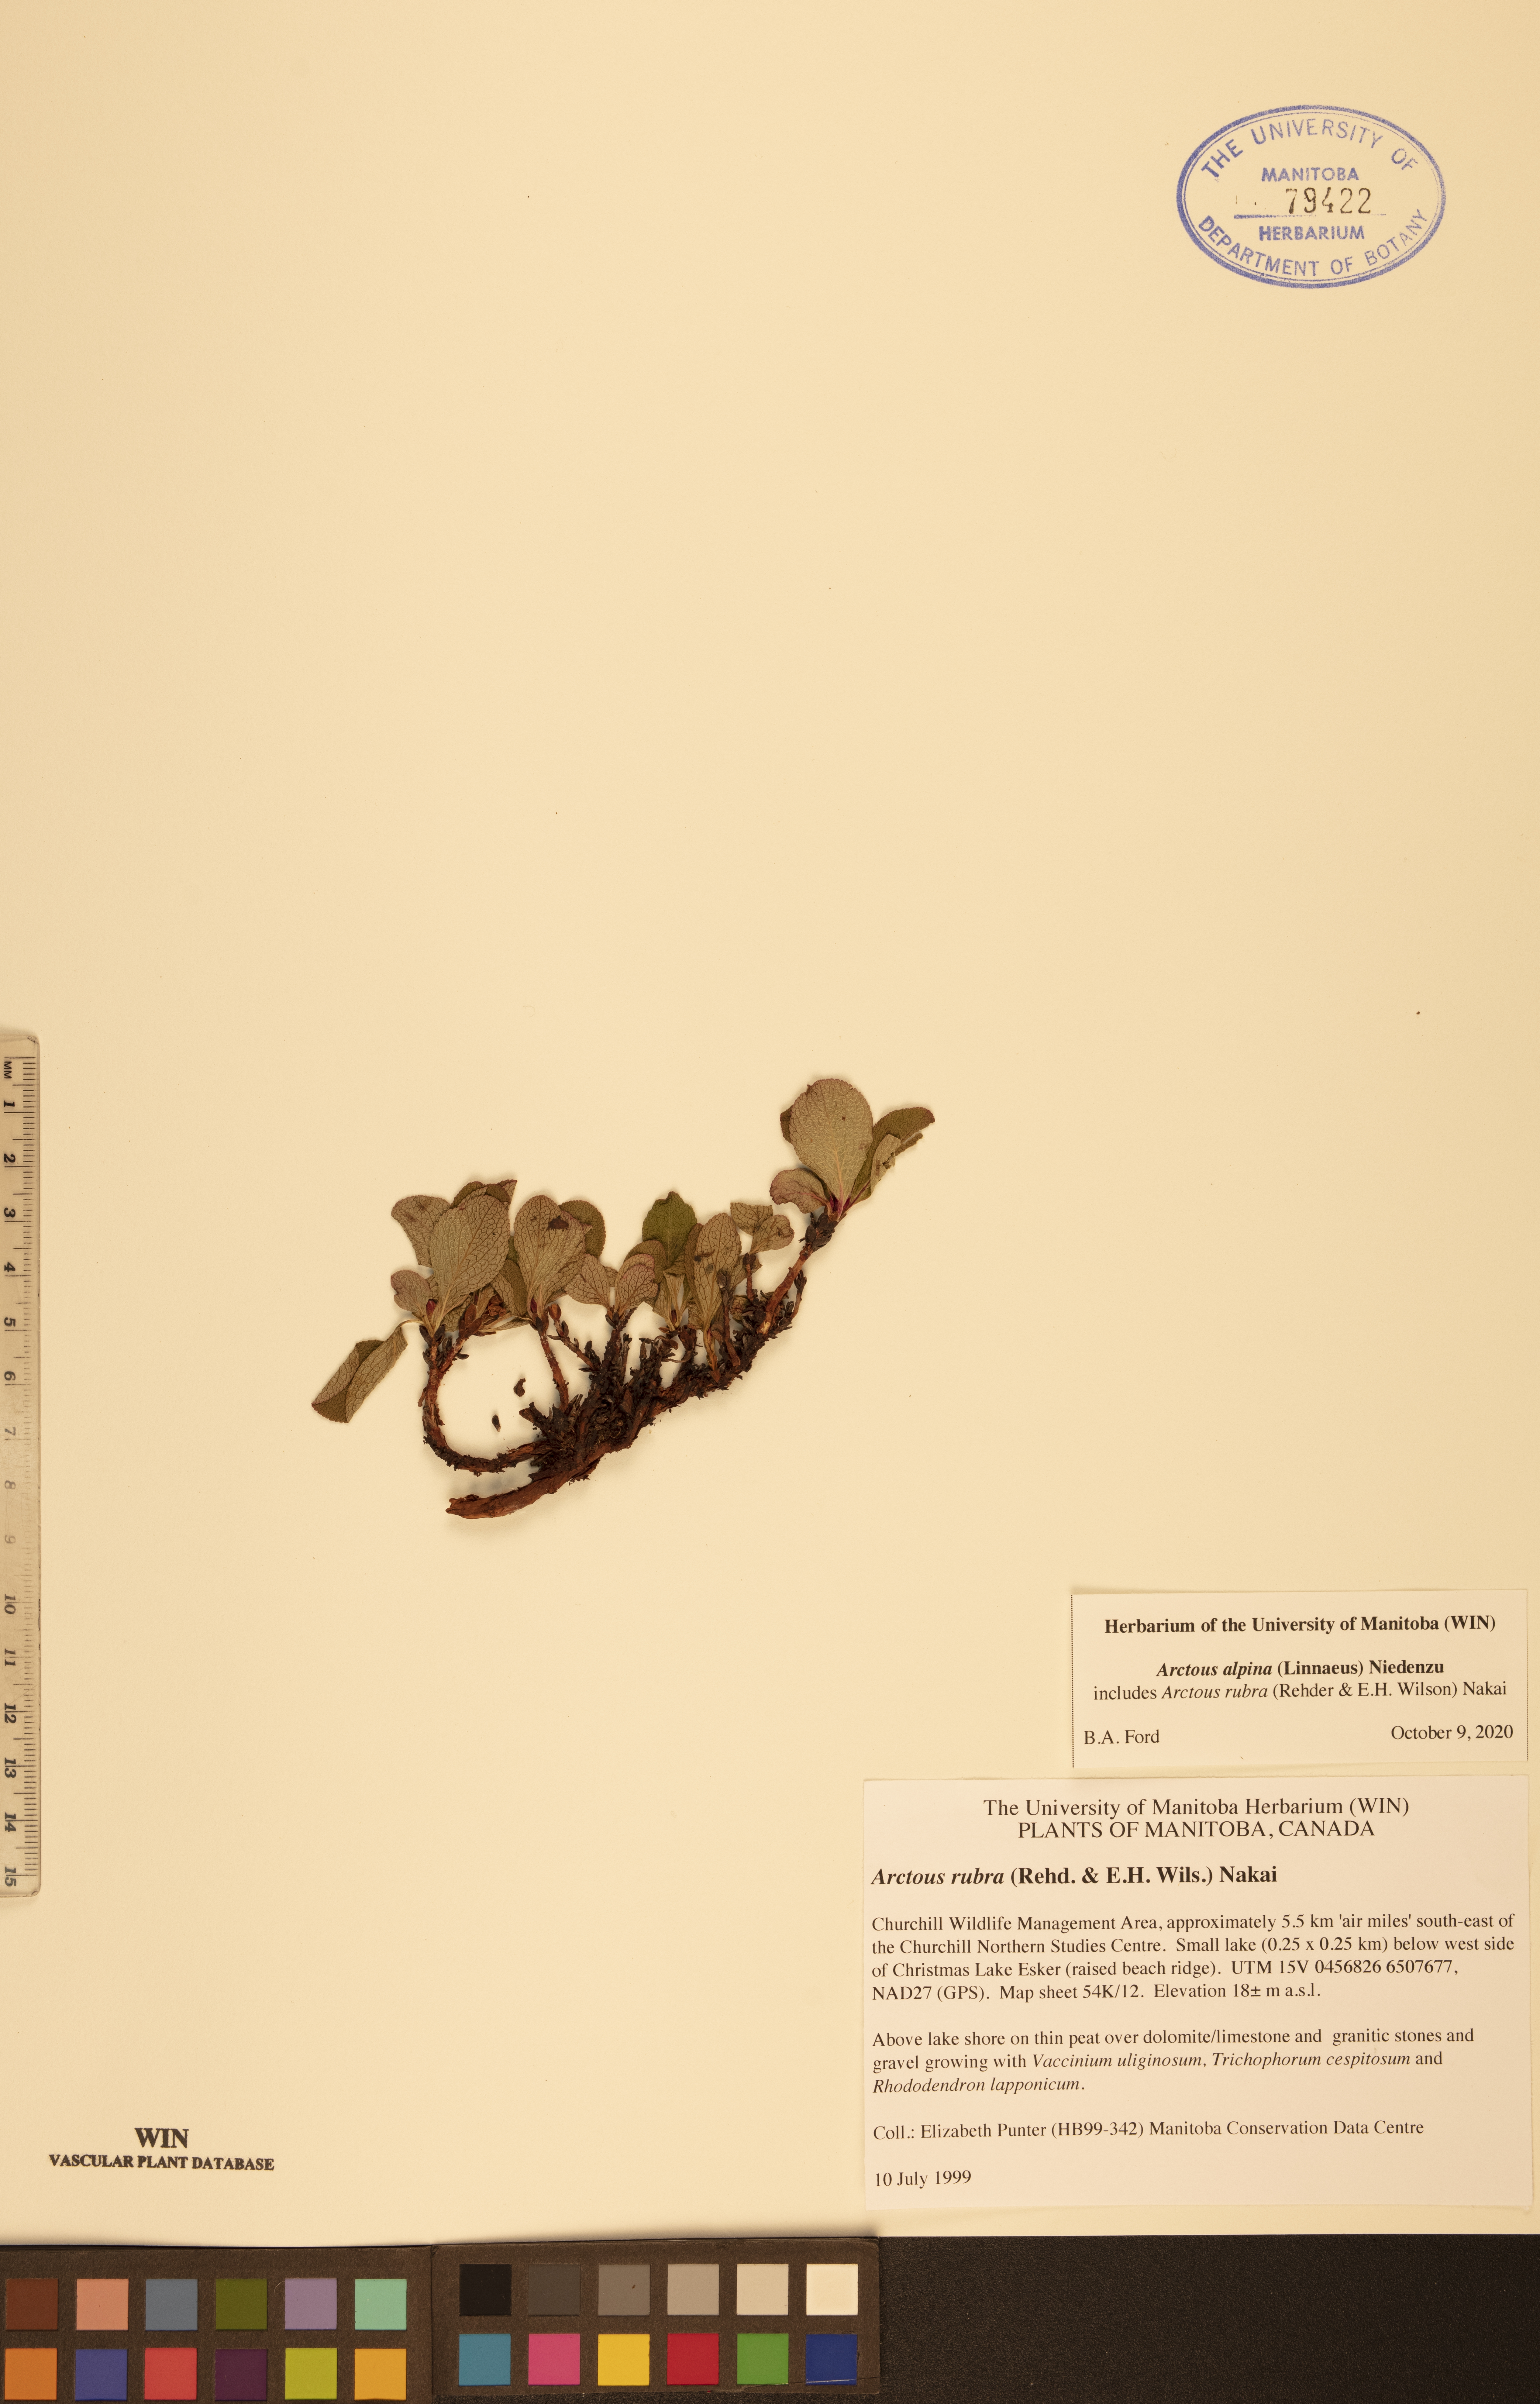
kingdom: Plantae
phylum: Tracheophyta
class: Magnoliopsida
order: Ericales
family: Ericaceae
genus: Arctostaphylos
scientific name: Arctostaphylos alpinus
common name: Alpine bearberry
